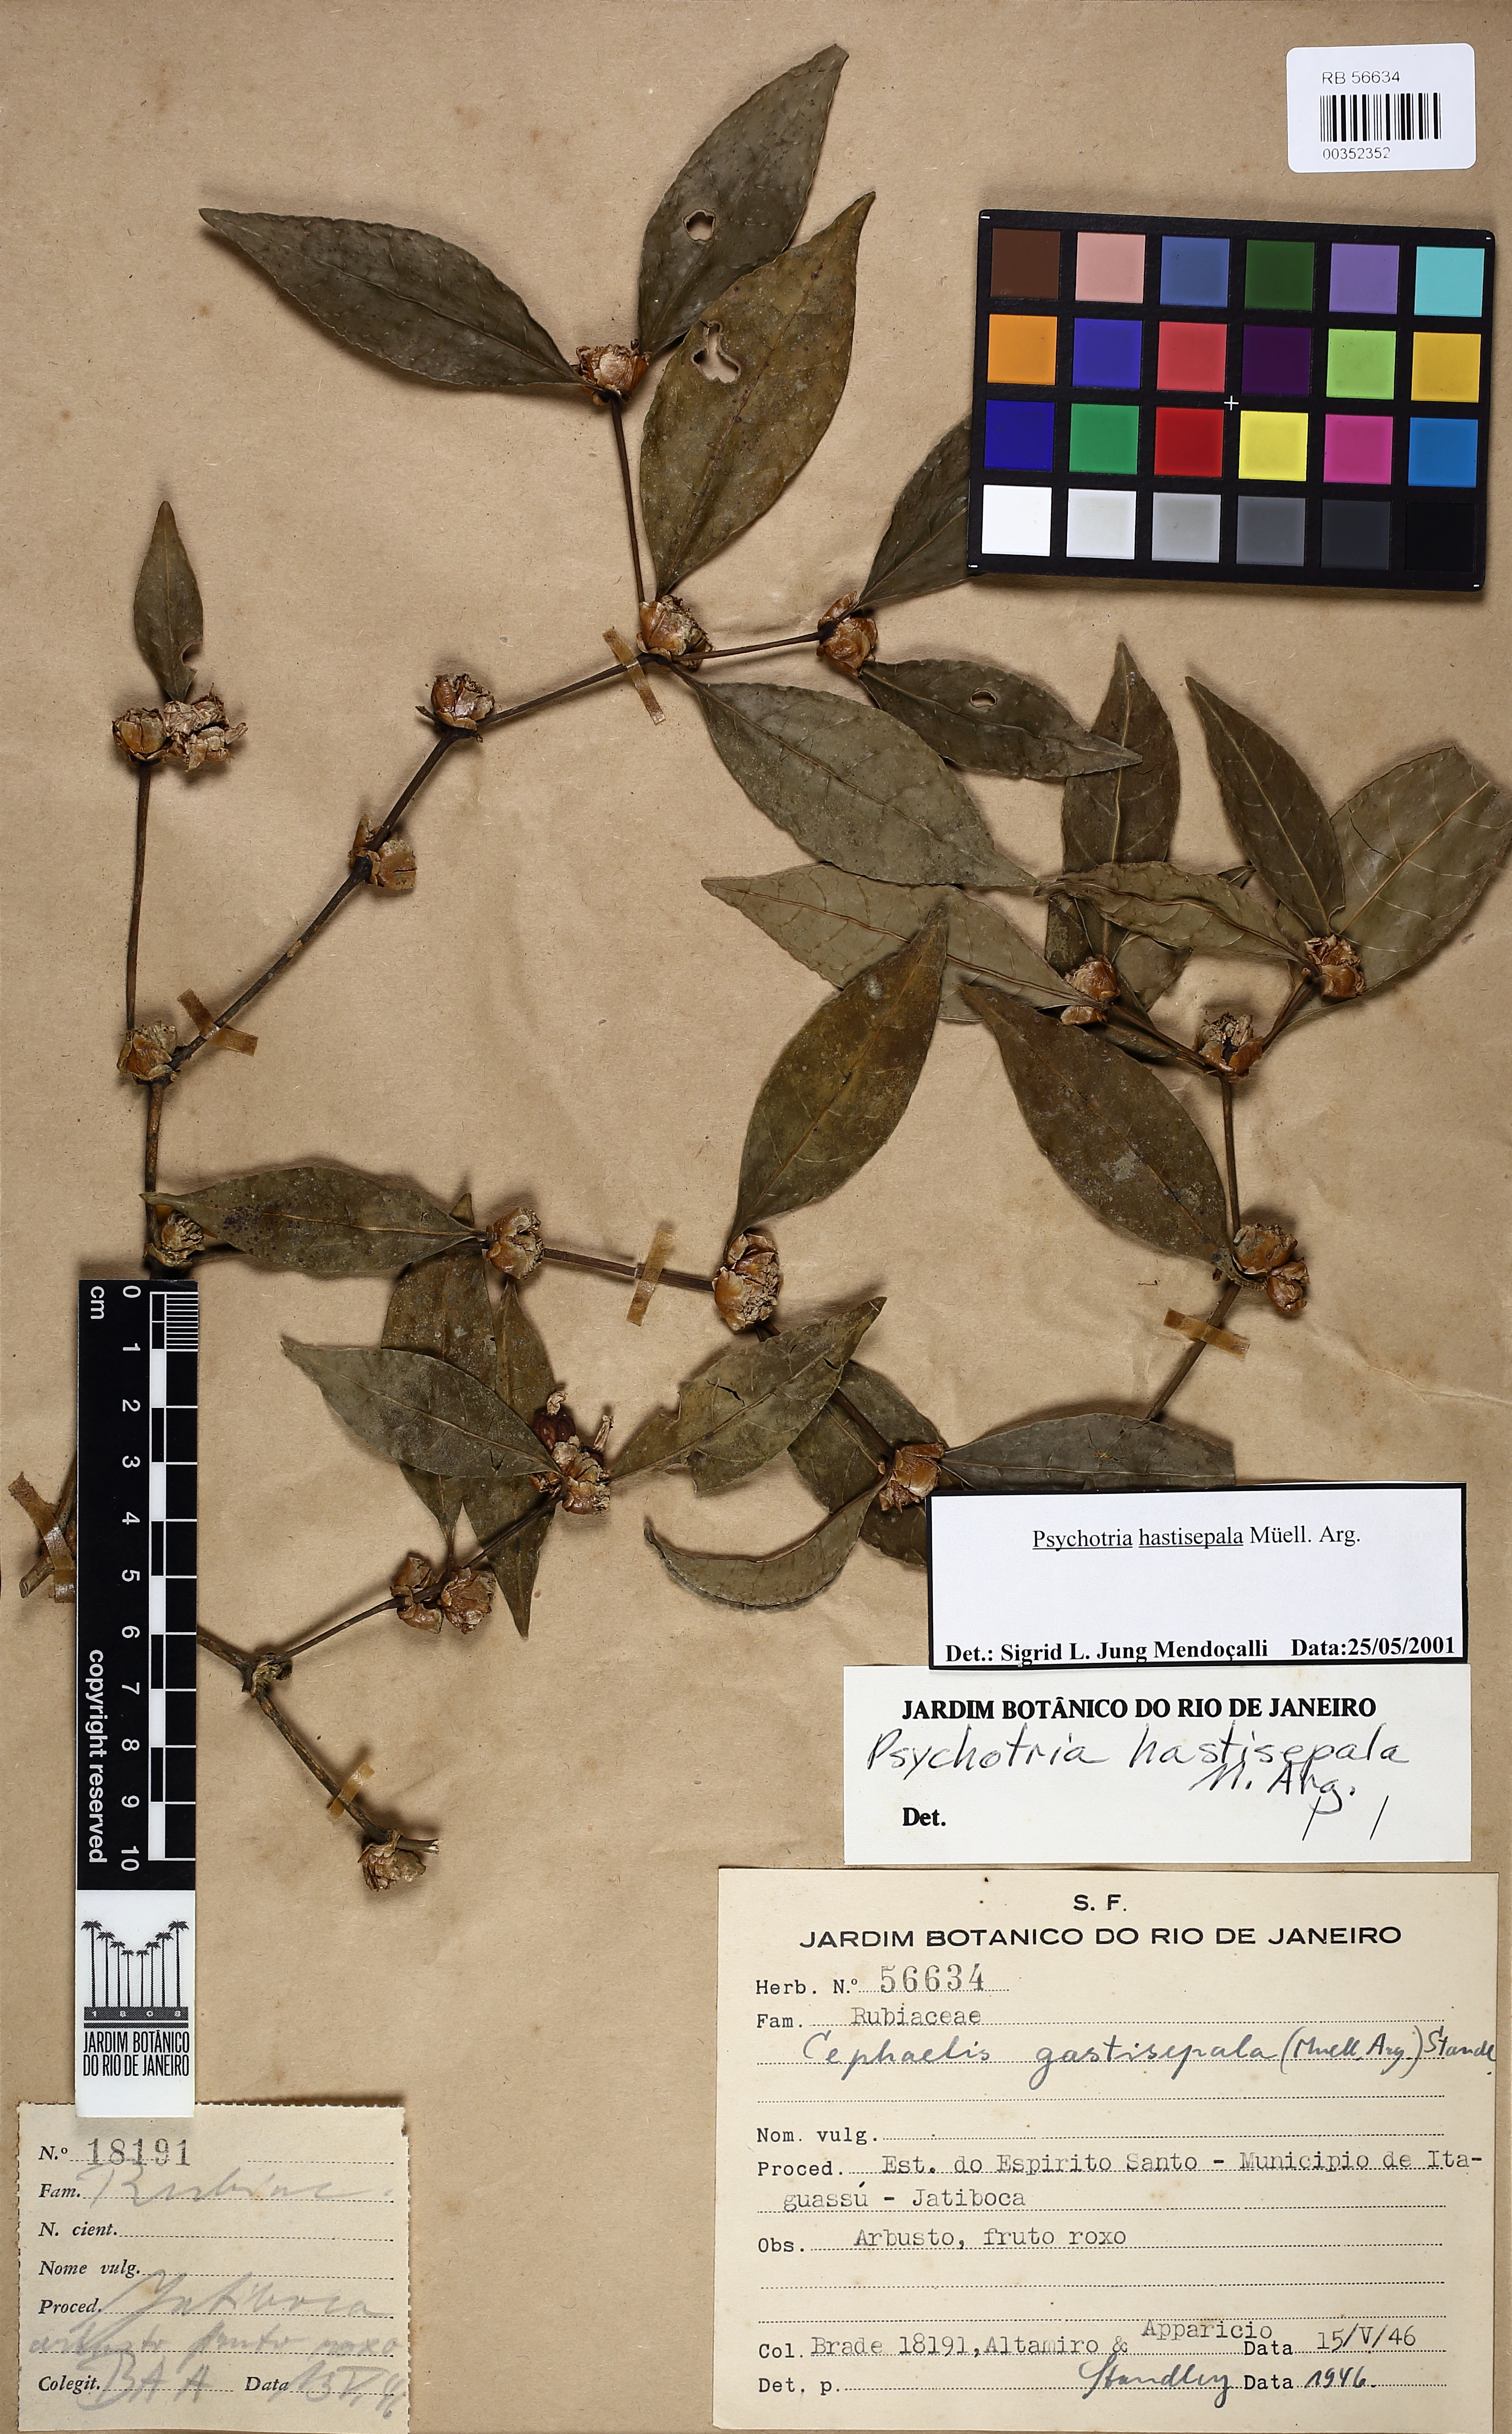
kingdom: Plantae
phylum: Tracheophyta
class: Magnoliopsida
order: Gentianales
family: Rubiaceae
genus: Psychotria
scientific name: Psychotria hastisepala
